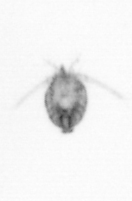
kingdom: Animalia
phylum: Arthropoda
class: Copepoda
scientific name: Copepoda
